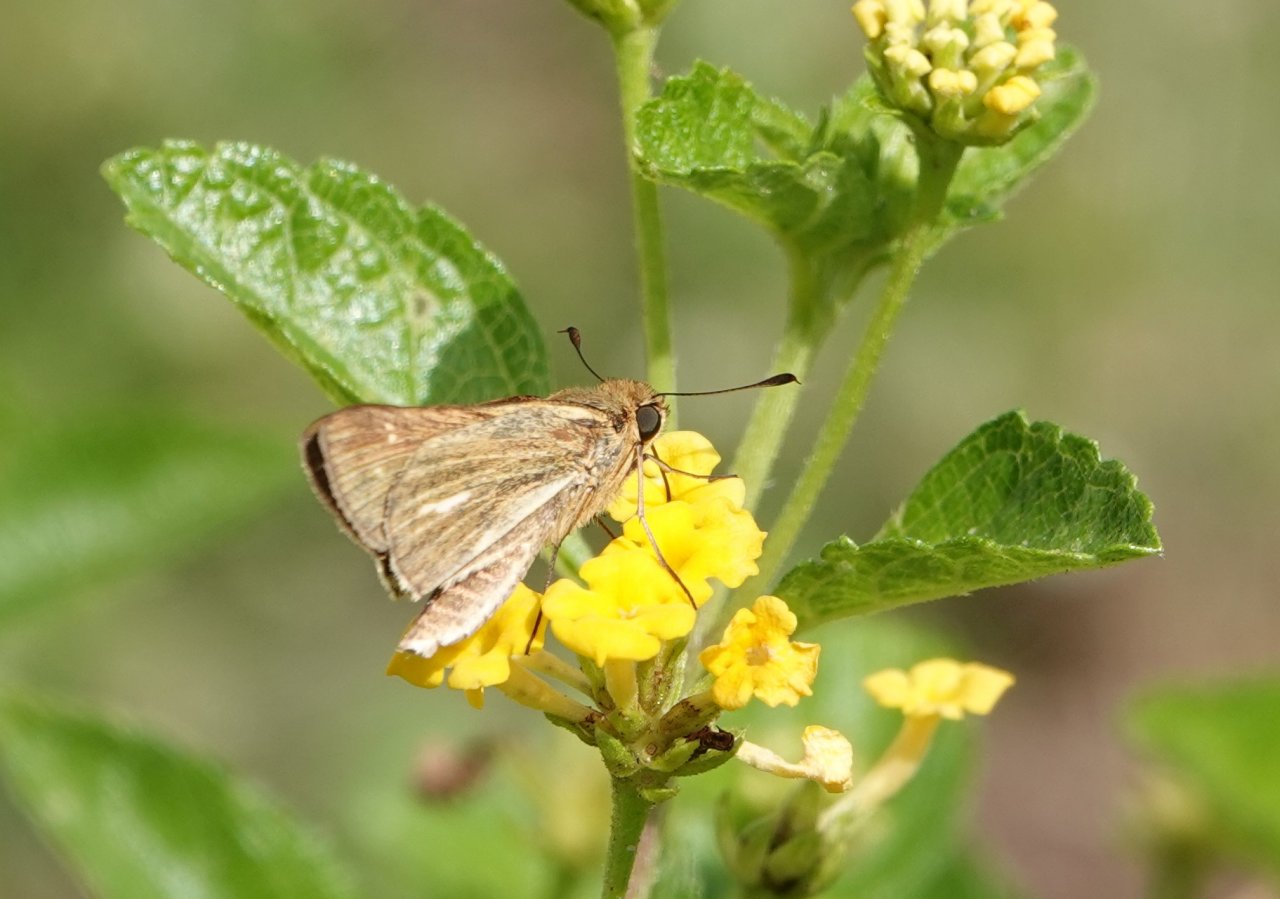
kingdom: Animalia
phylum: Arthropoda
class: Insecta
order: Lepidoptera
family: Hesperiidae
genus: Panoquina
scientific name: Panoquina panoquin
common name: Salt Marsh Skipper
